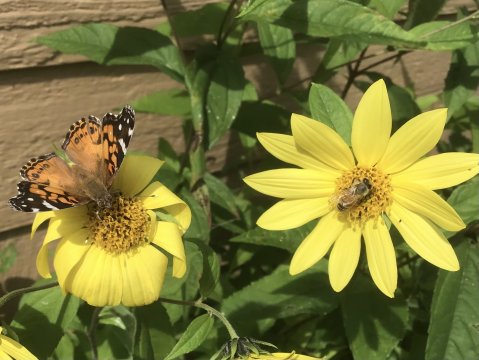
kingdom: Animalia
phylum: Arthropoda
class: Insecta
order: Lepidoptera
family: Nymphalidae
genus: Vanessa
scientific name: Vanessa virginiensis
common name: American Lady
